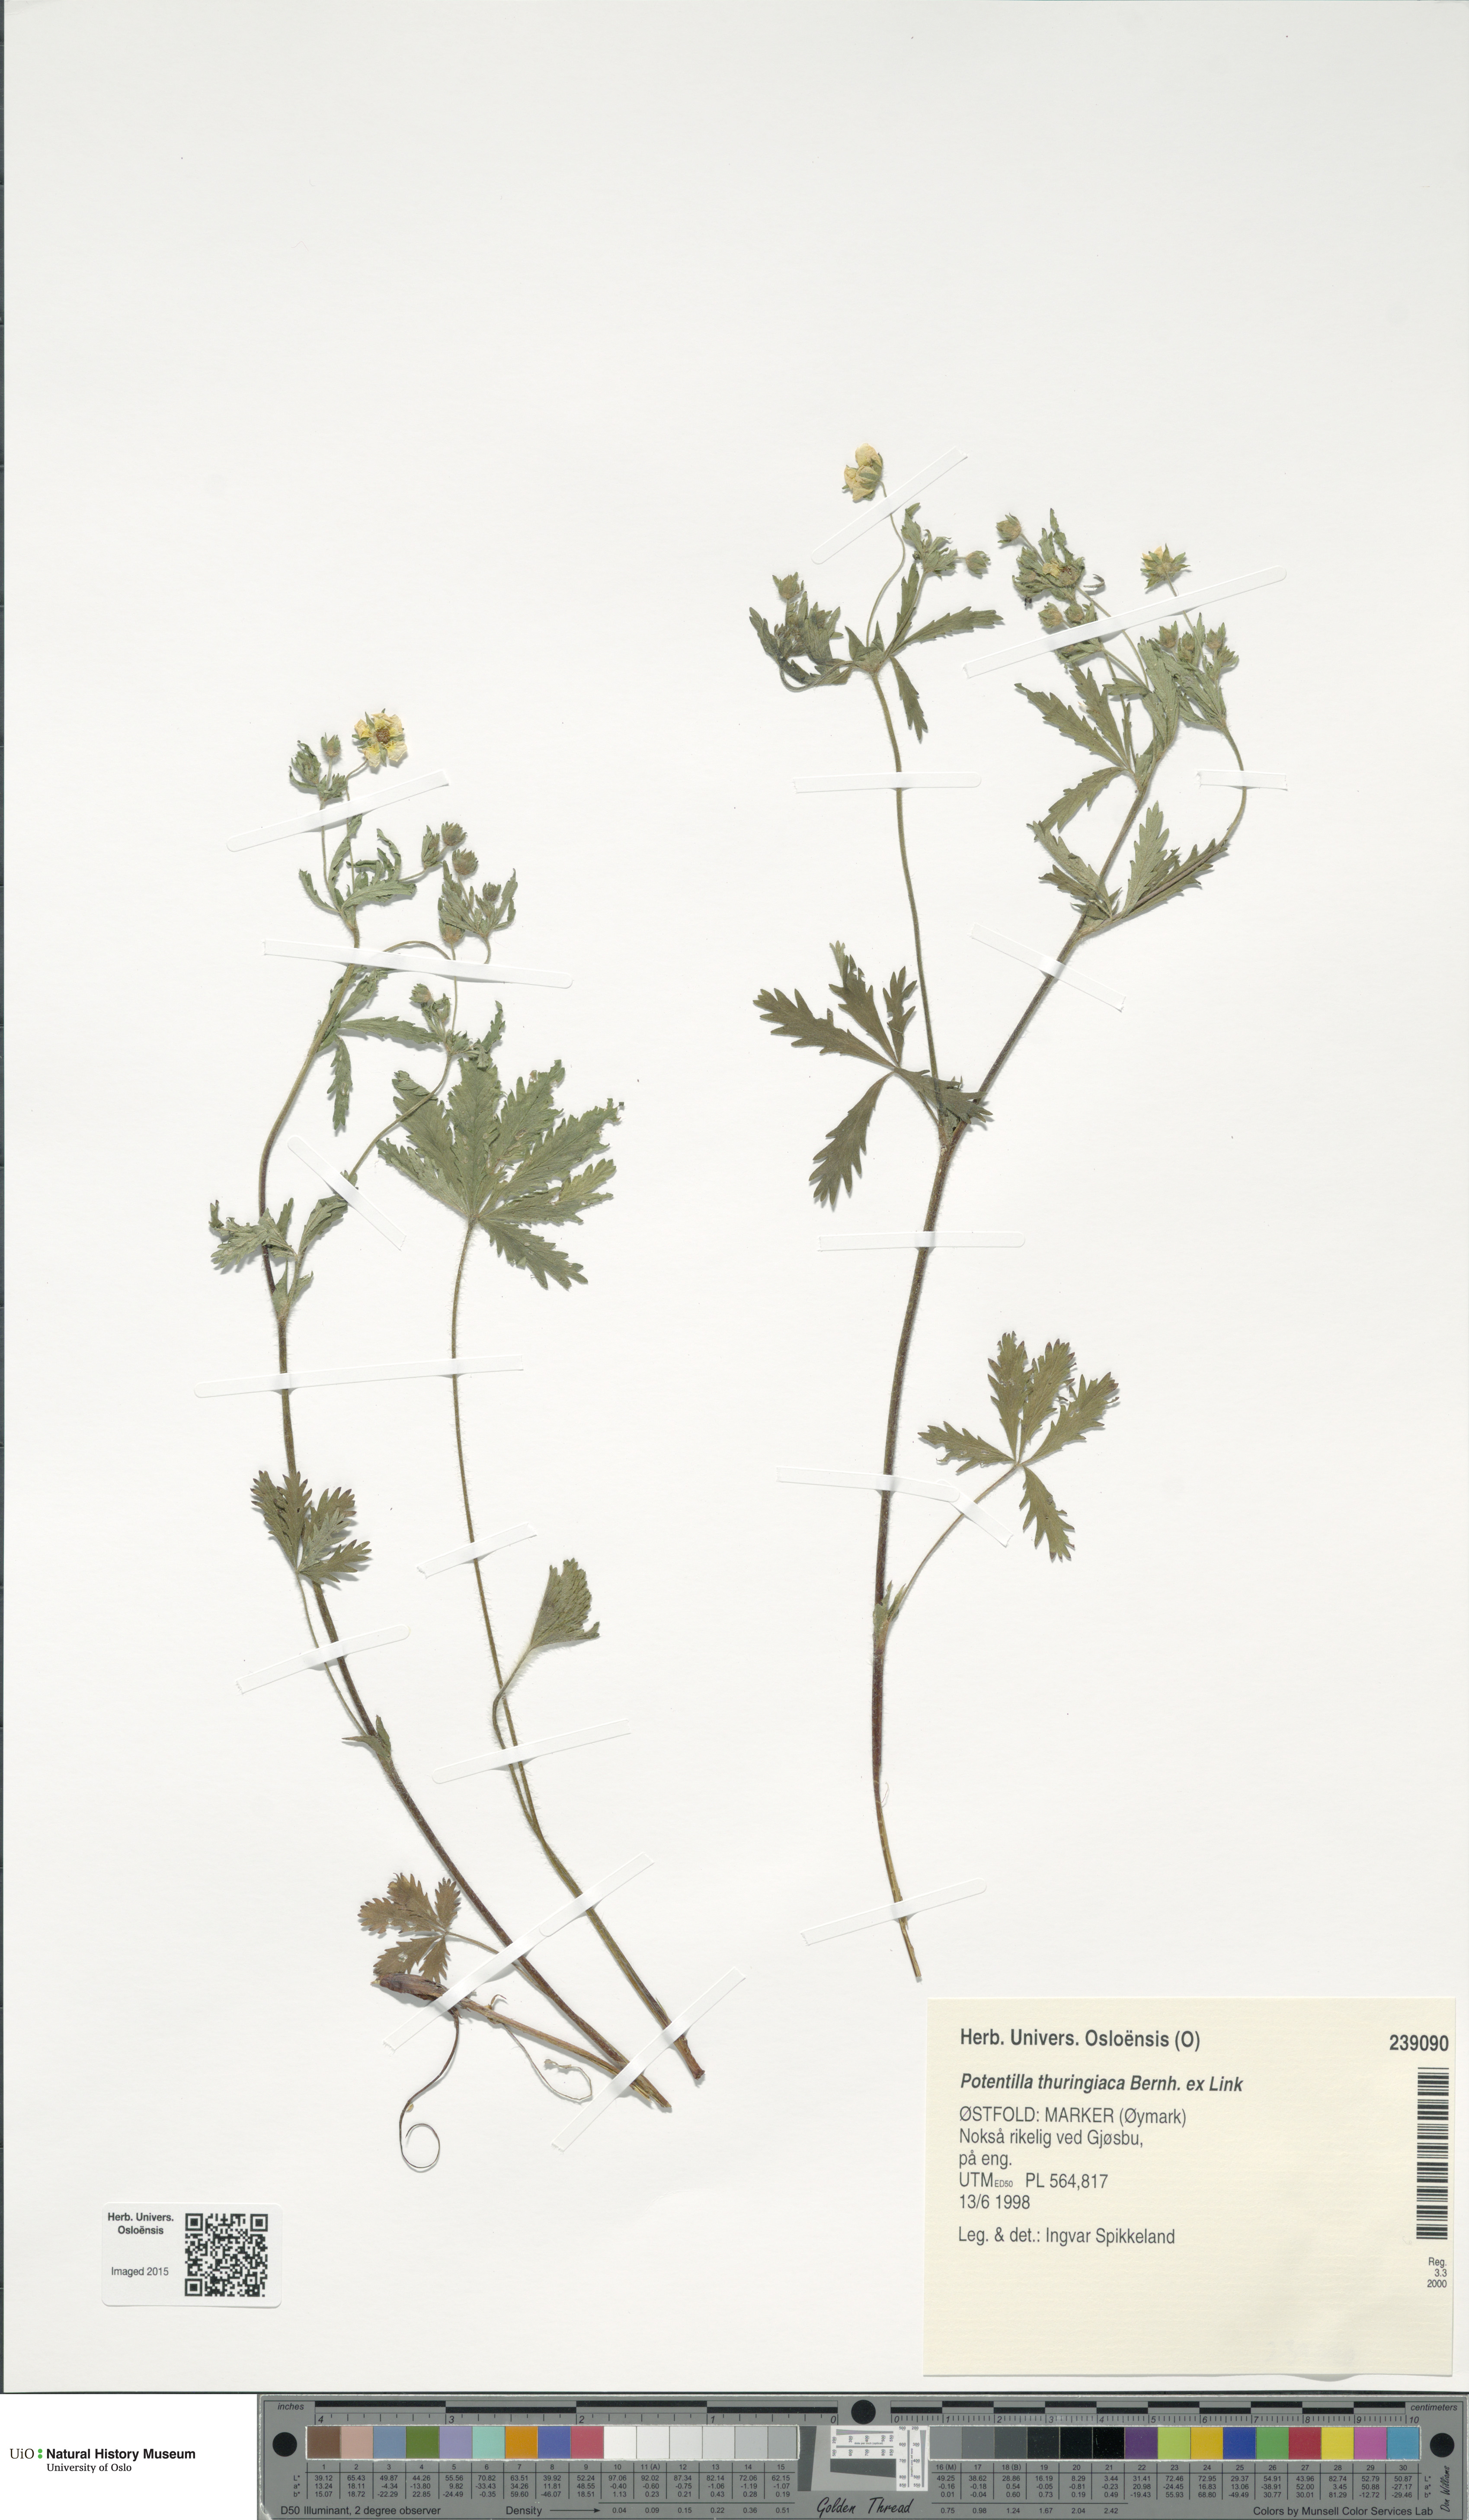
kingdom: Plantae
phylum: Tracheophyta
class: Magnoliopsida
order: Rosales
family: Rosaceae
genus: Potentilla
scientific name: Potentilla thuringiaca
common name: European cinquefoil
